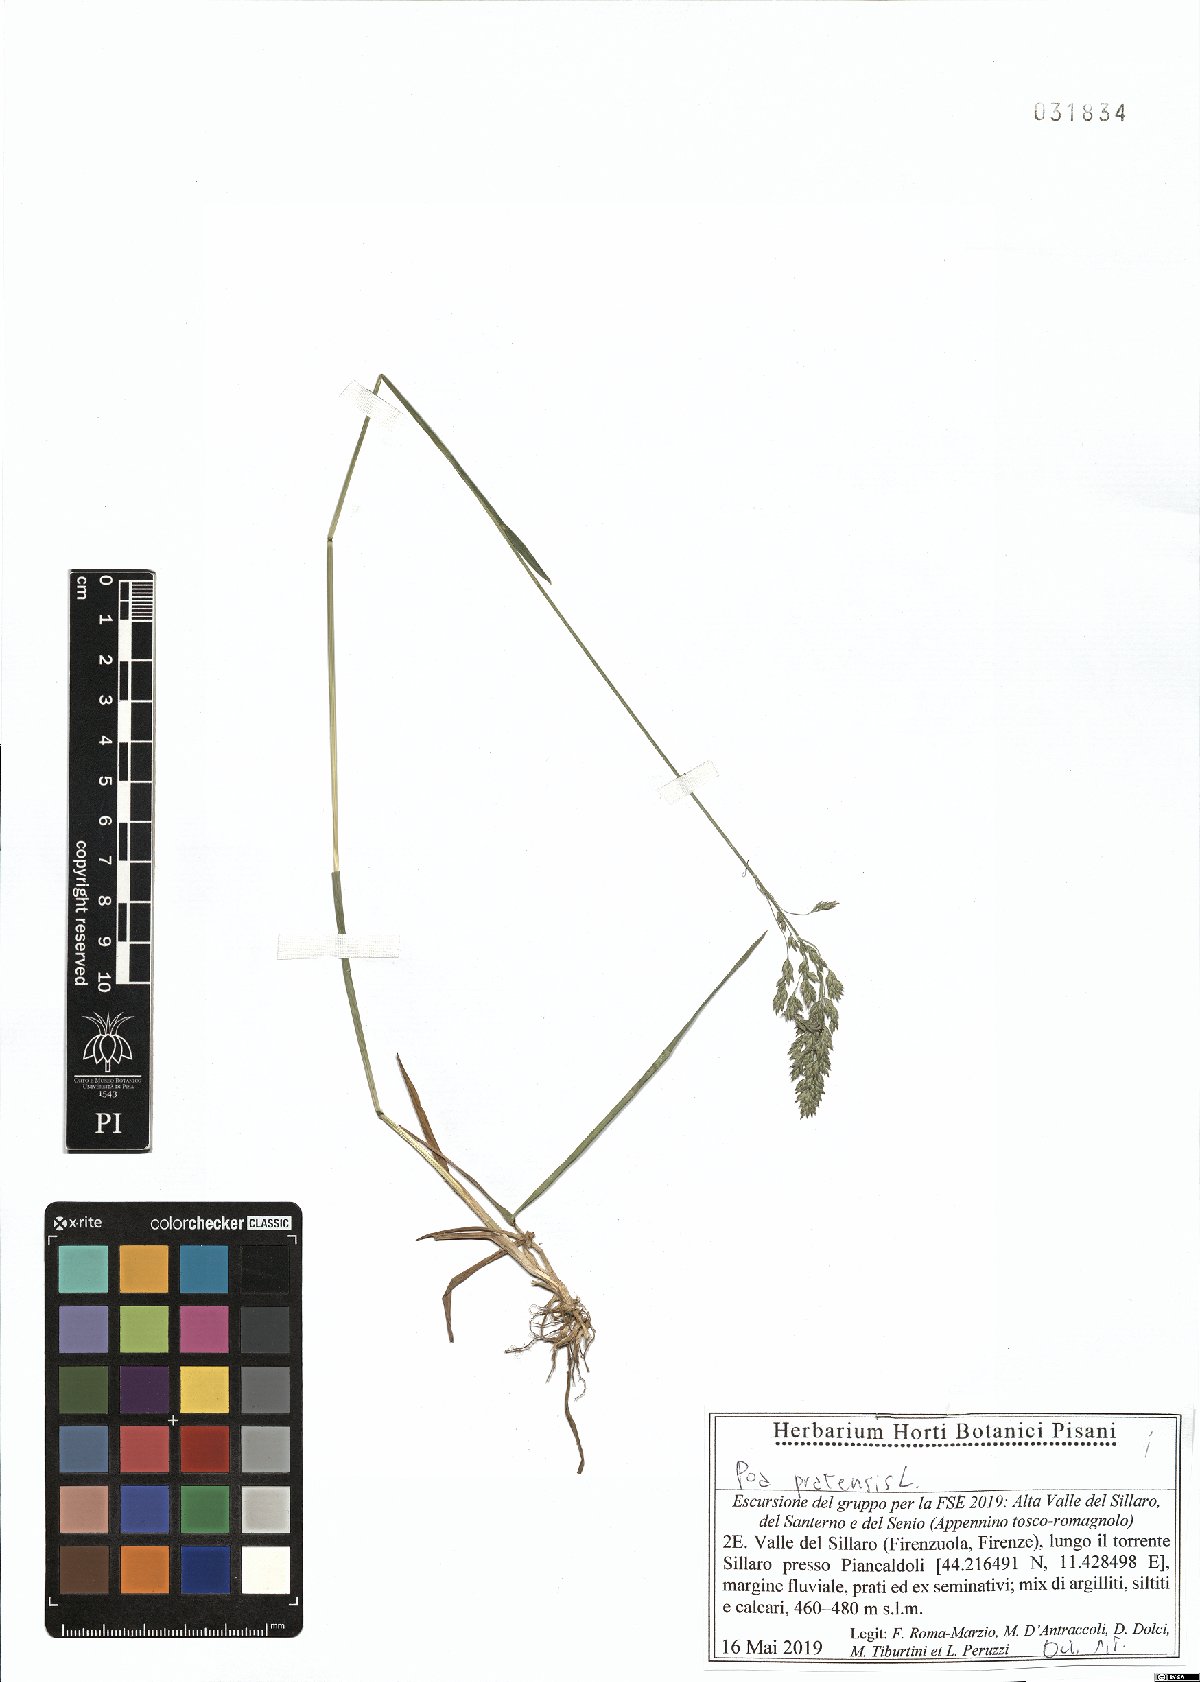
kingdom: Plantae
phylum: Tracheophyta
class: Liliopsida
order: Poales
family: Poaceae
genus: Poa
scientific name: Poa pratensis
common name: Kentucky bluegrass
